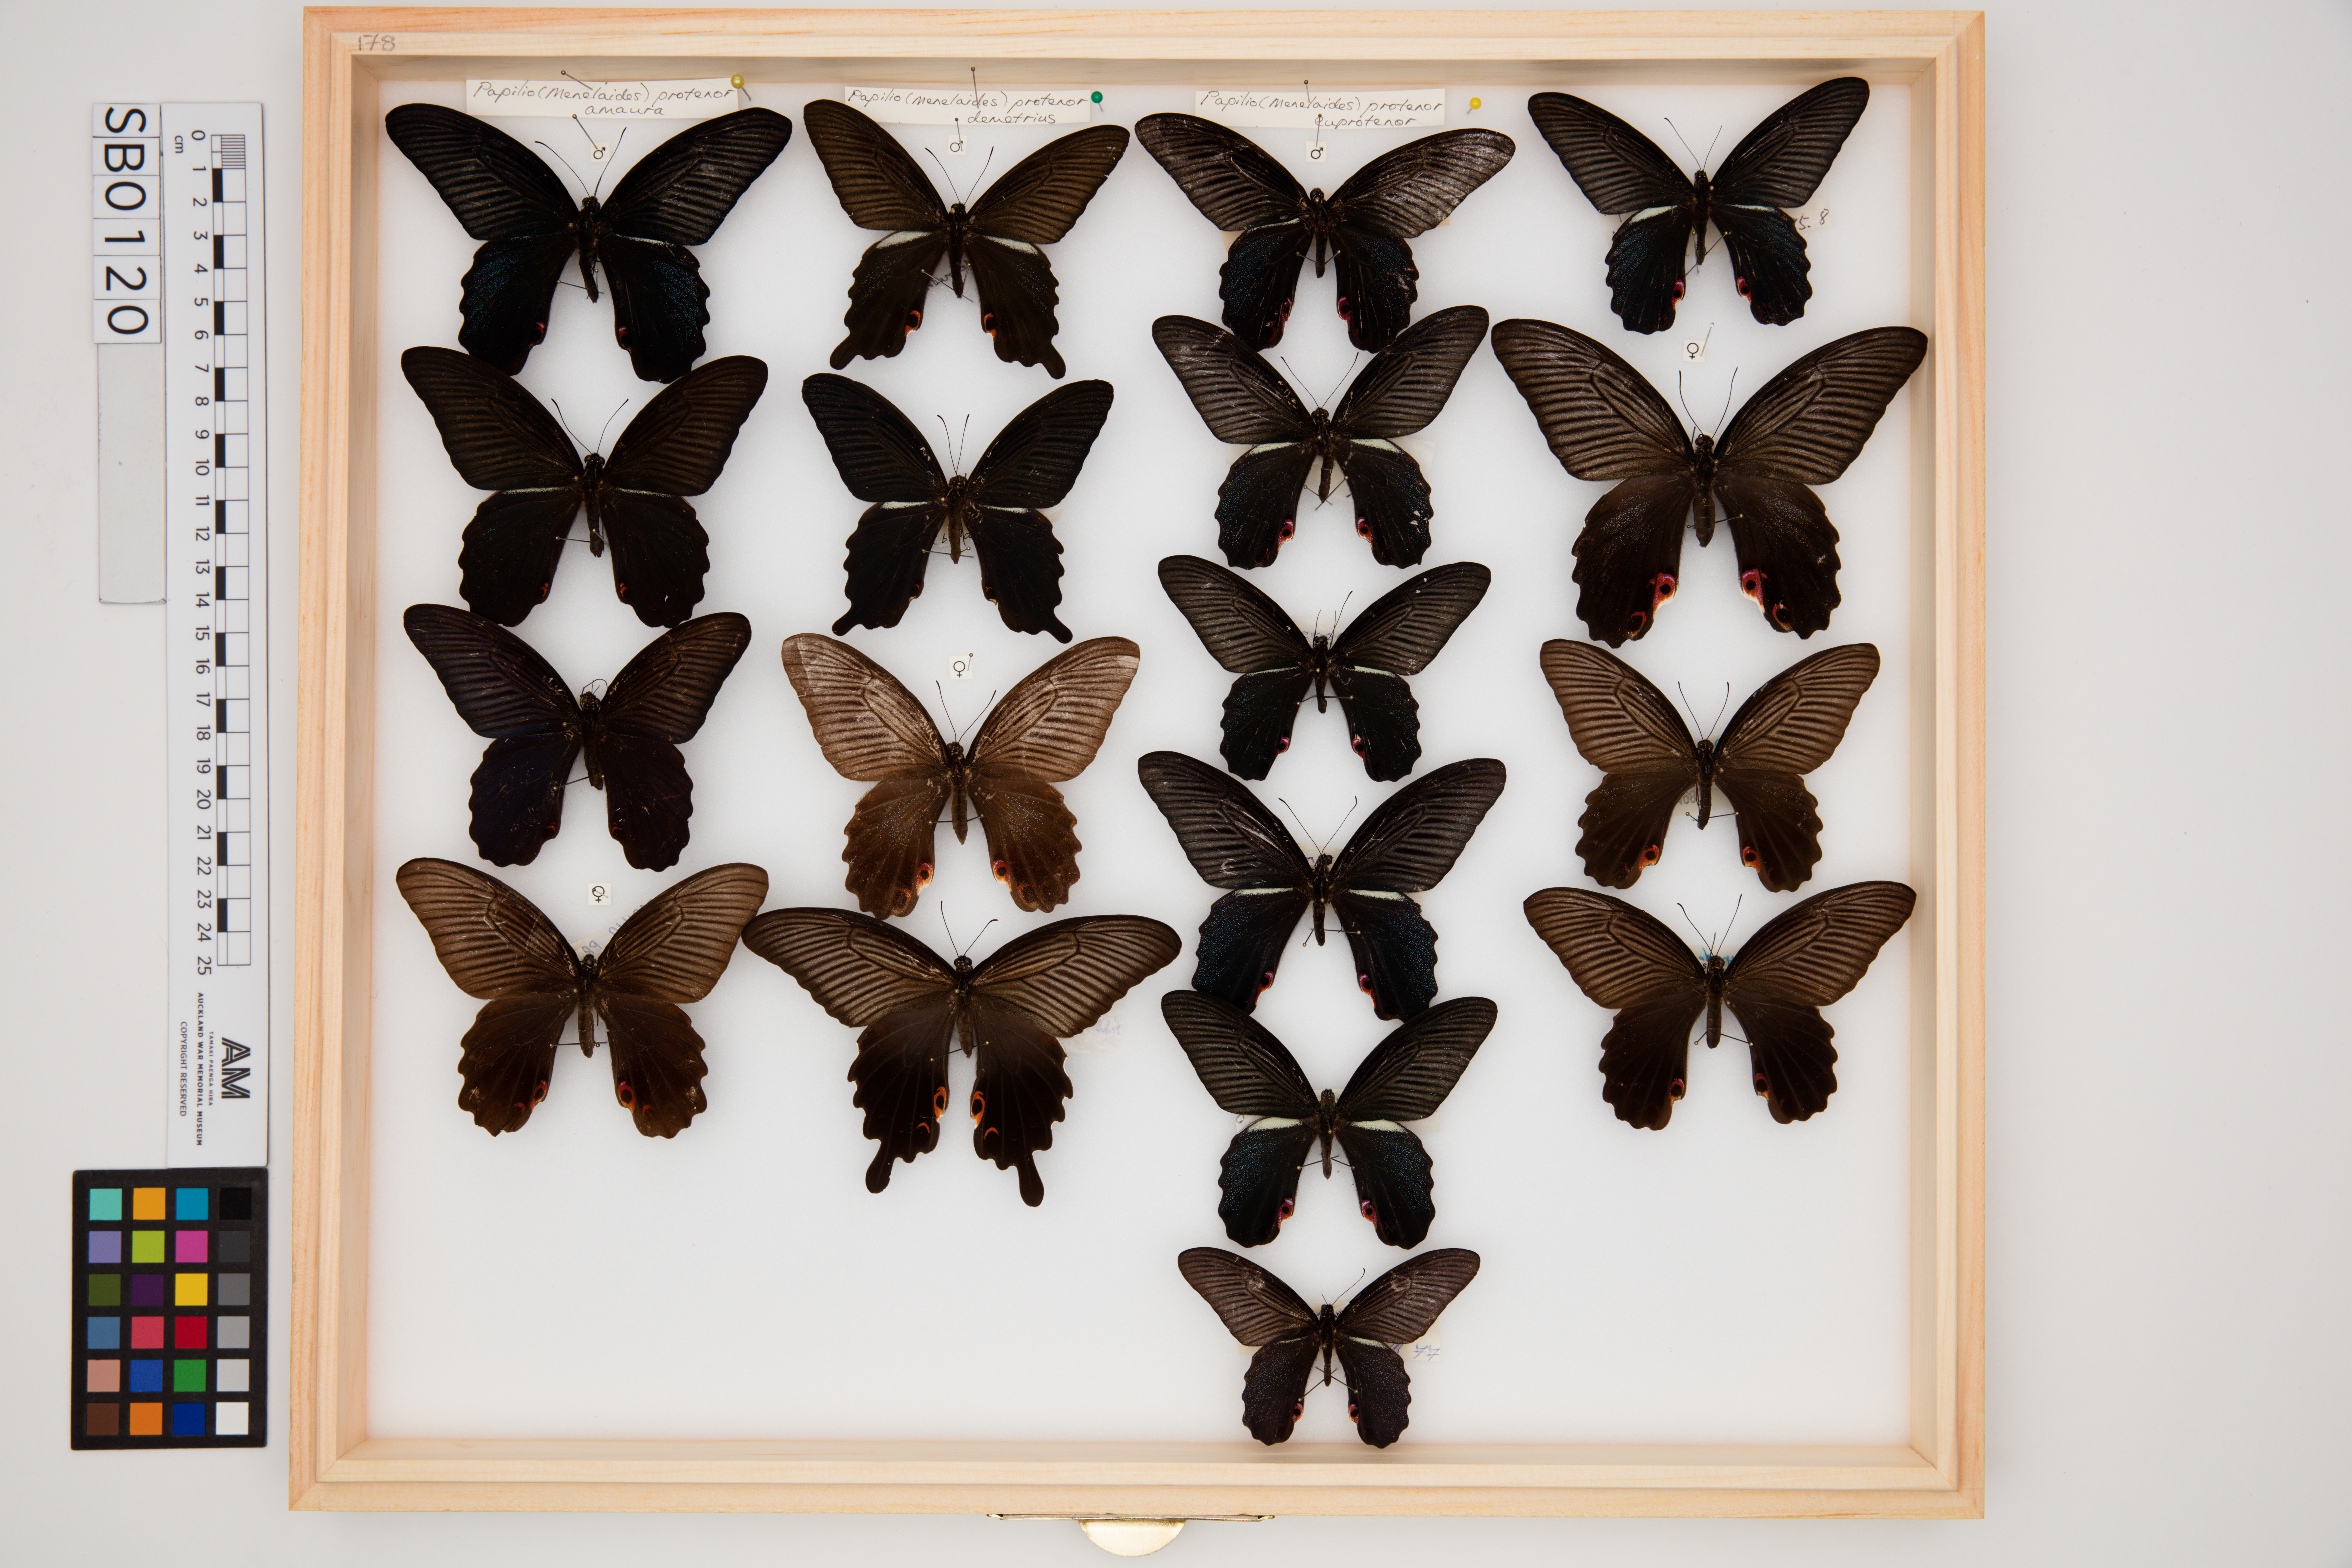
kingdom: Animalia
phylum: Arthropoda
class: Insecta
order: Lepidoptera
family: Papilionidae
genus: Papilio
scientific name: Papilio protenor
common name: Spangle
